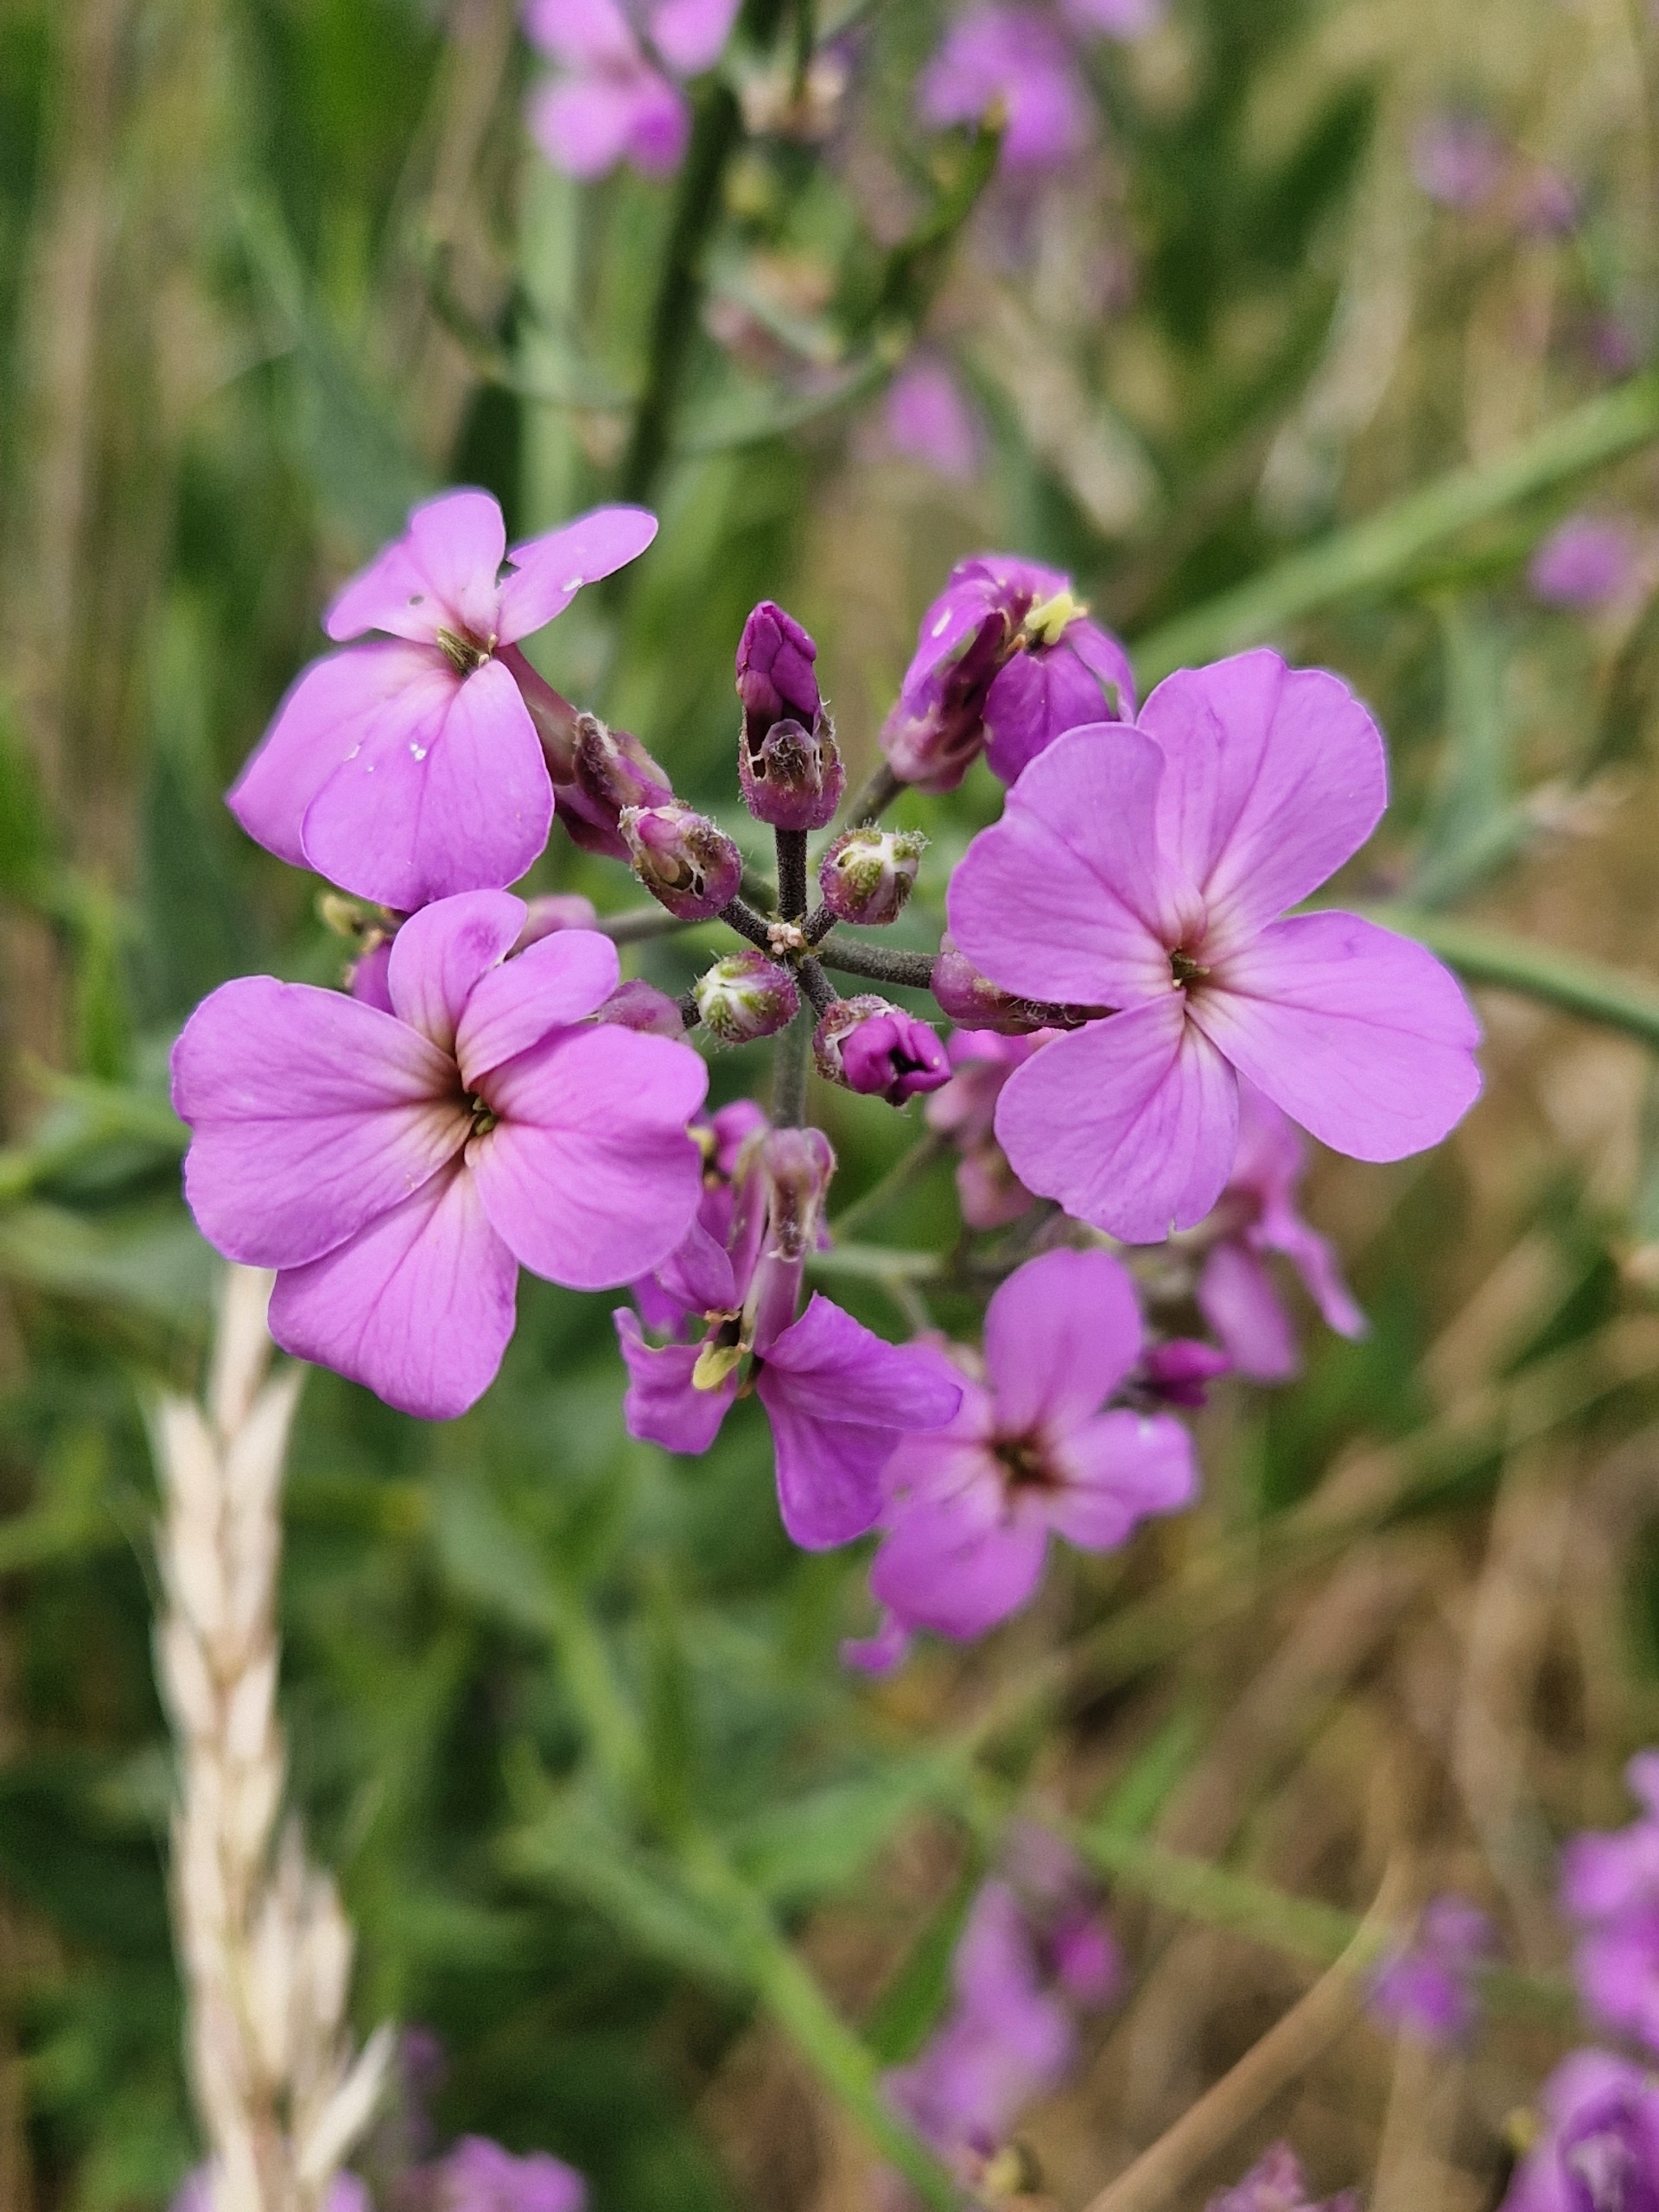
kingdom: Plantae
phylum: Tracheophyta
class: Magnoliopsida
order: Brassicales
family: Brassicaceae
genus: Hesperis
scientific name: Hesperis matronalis
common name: Aftenstjerne
